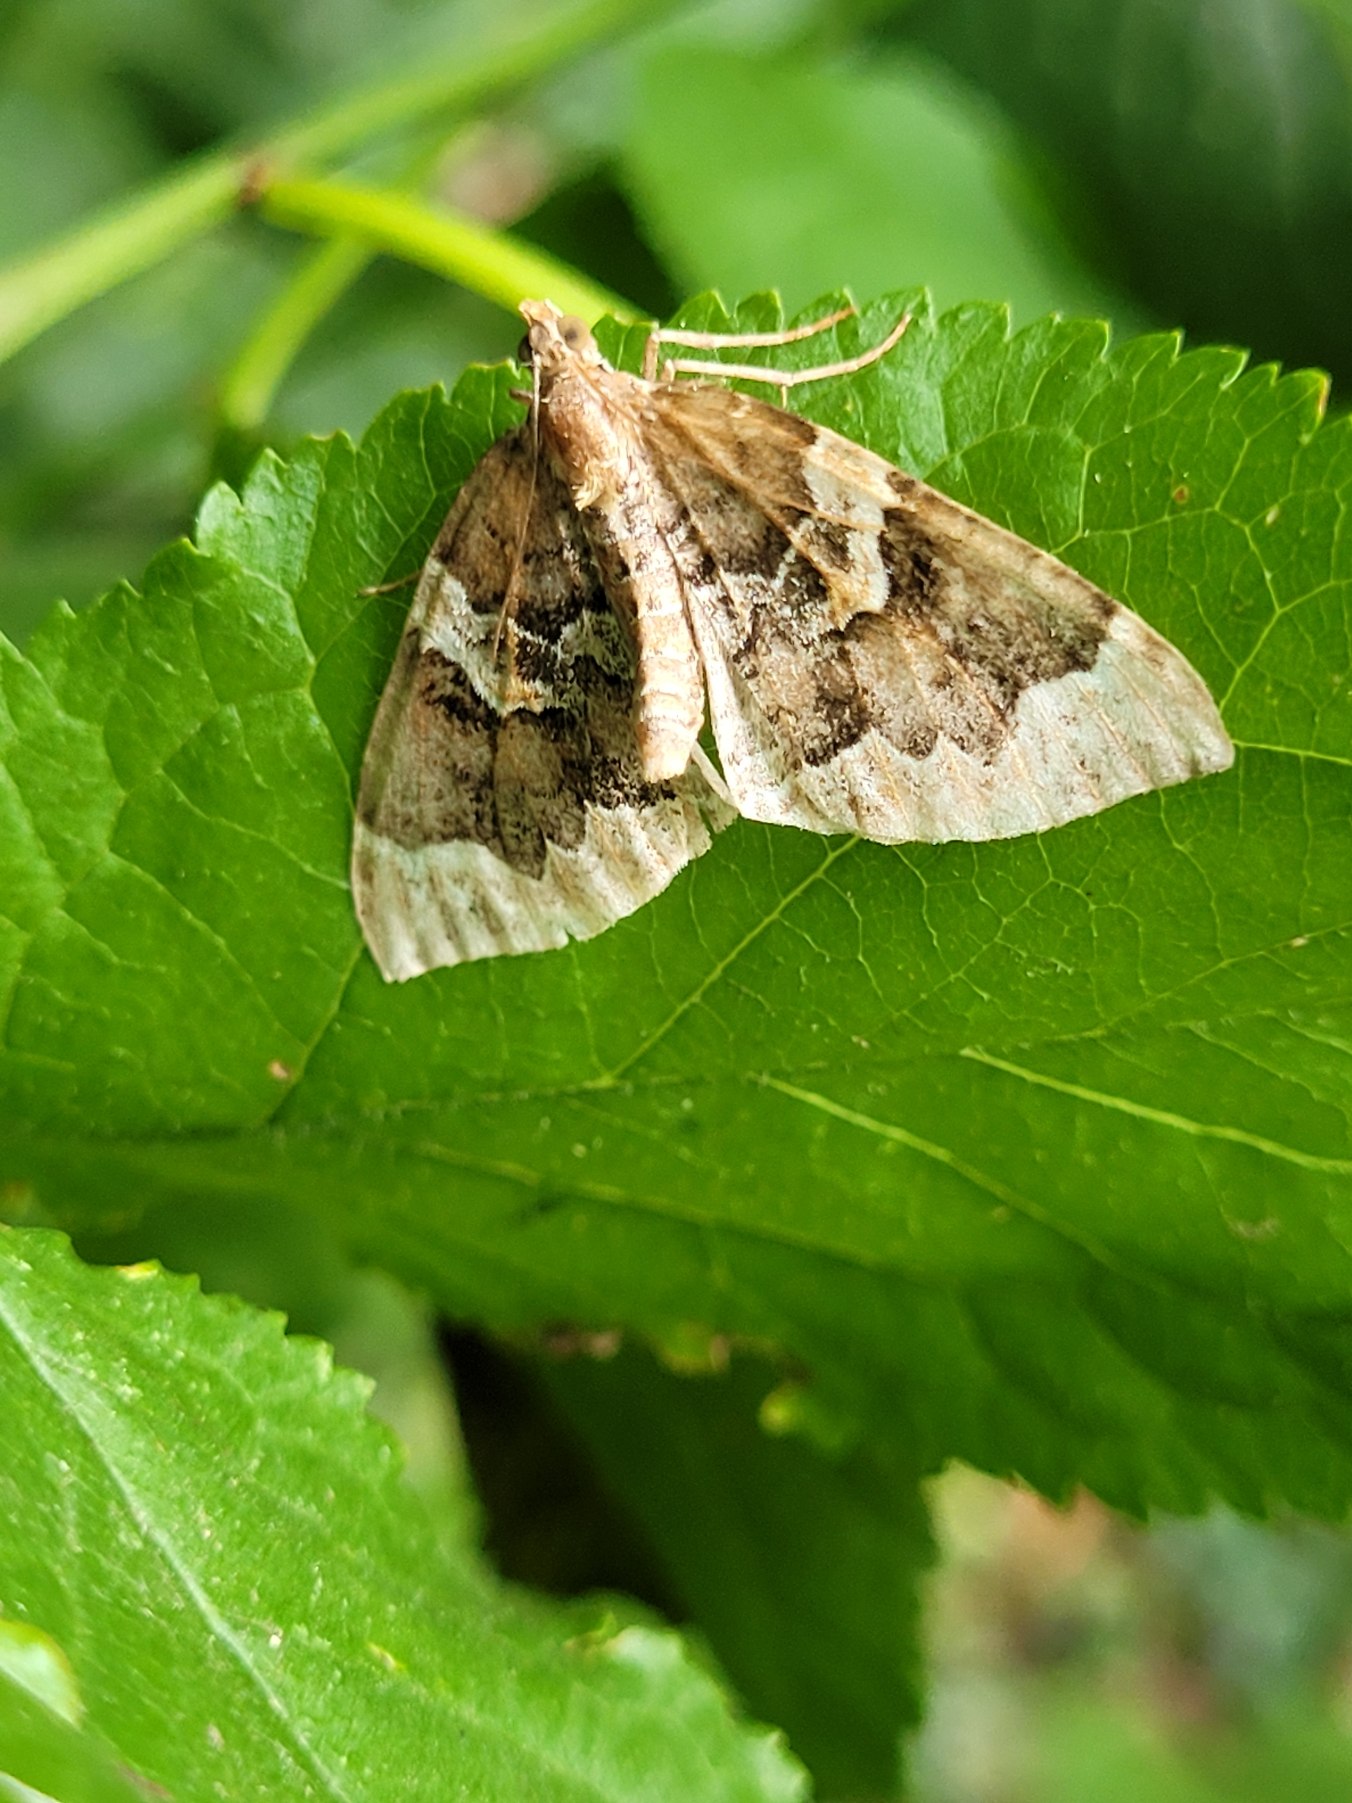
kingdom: Animalia
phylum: Arthropoda
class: Insecta
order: Lepidoptera
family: Geometridae
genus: Eulithis
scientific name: Eulithis prunata
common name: Broget havemåler
